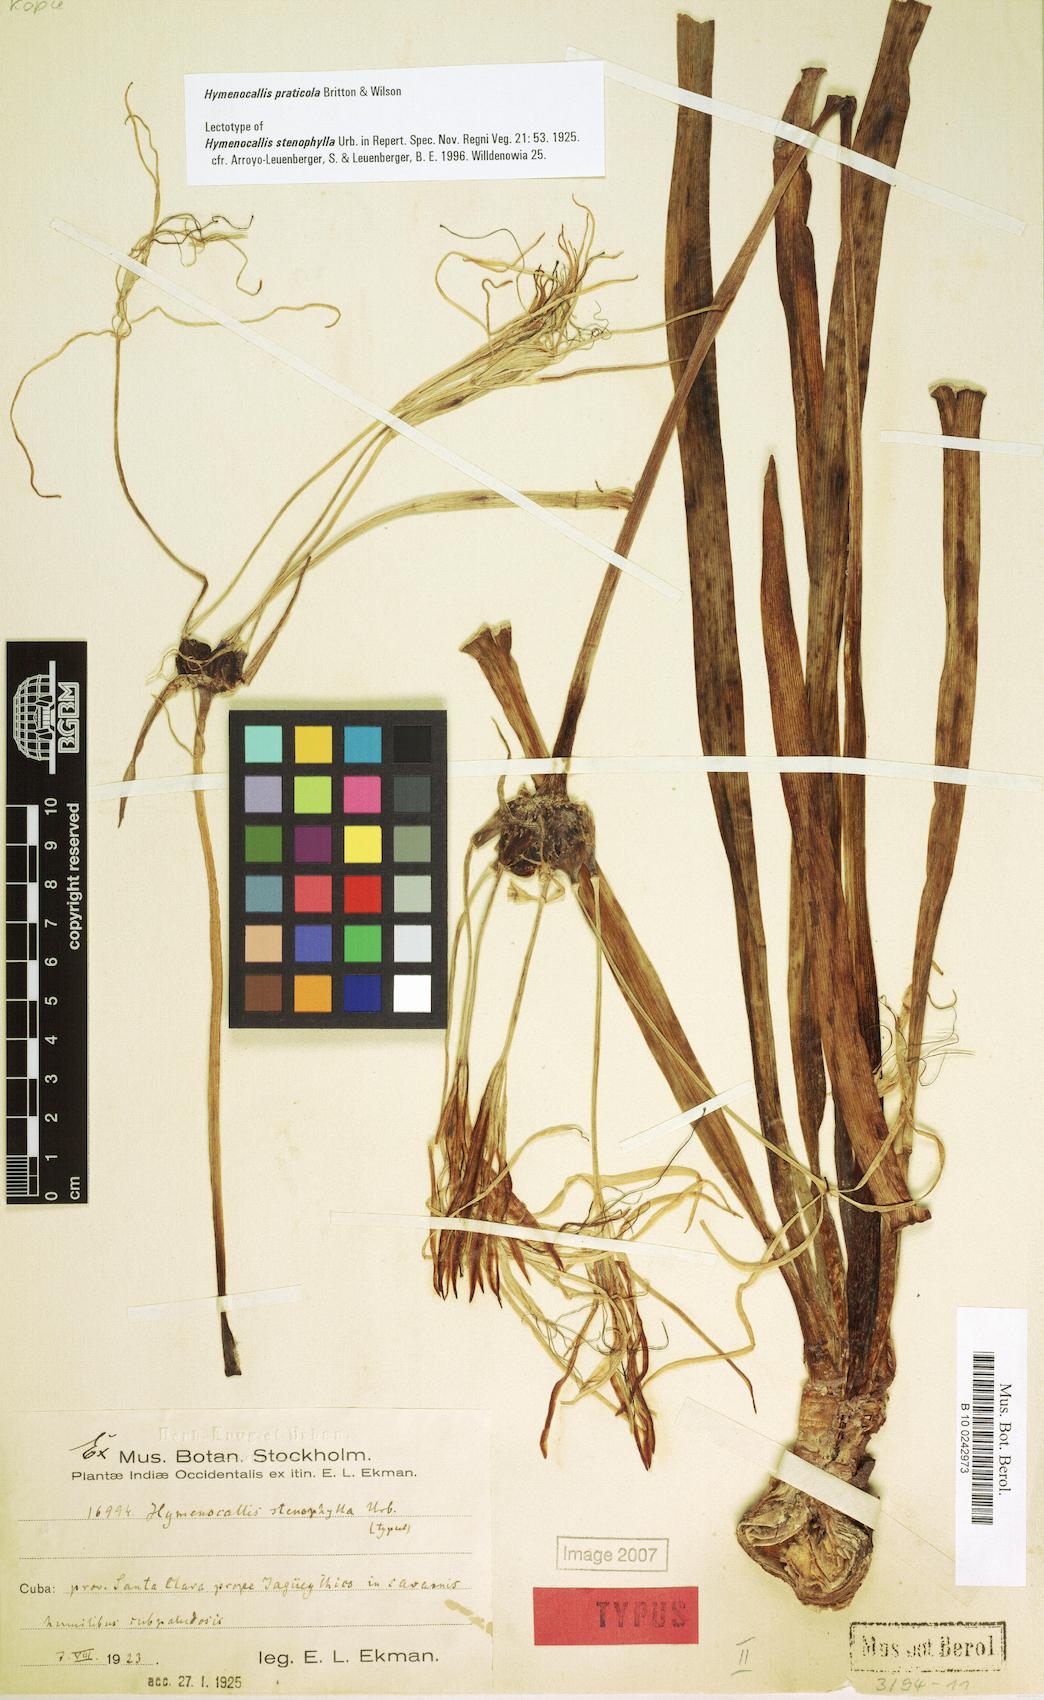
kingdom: Plantae
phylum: Tracheophyta
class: Liliopsida
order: Asparagales
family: Amaryllidaceae
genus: Hymenocallis
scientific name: Hymenocallis praticola
